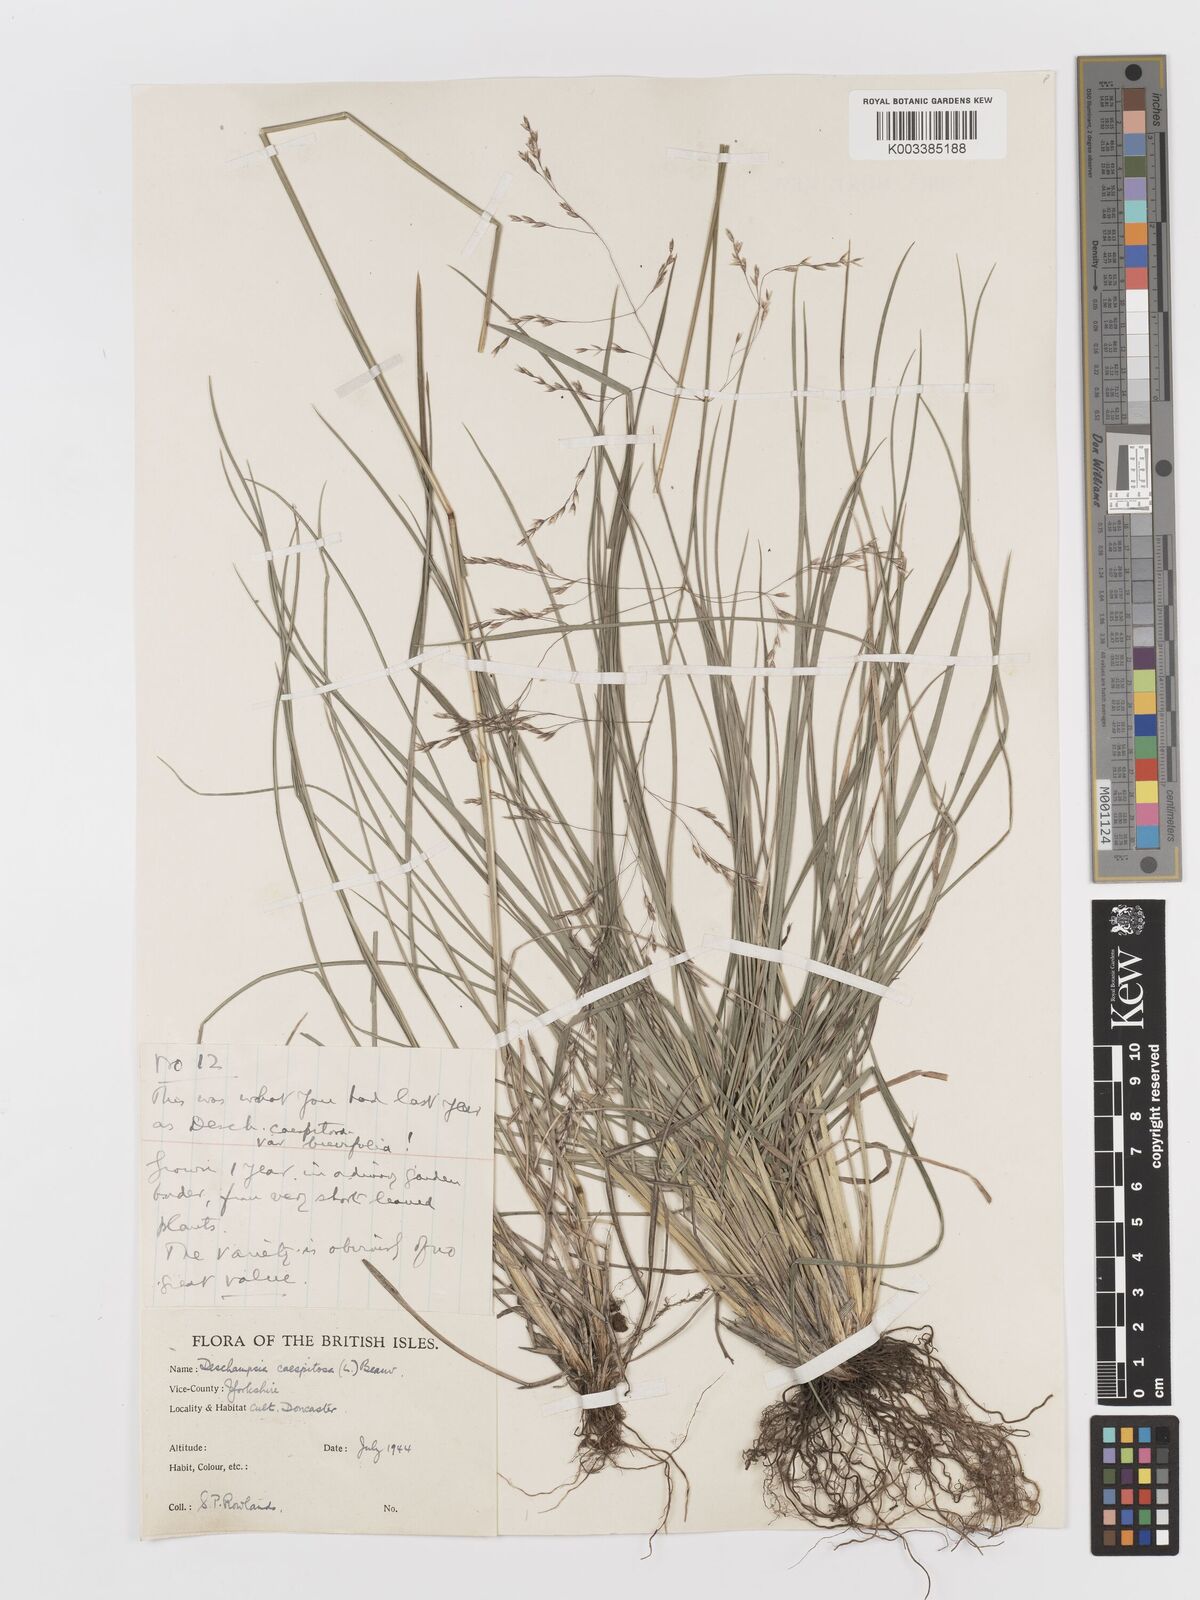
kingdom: Plantae
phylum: Tracheophyta
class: Liliopsida
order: Poales
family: Poaceae
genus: Deschampsia
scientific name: Deschampsia cespitosa
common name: Tufted hair-grass
